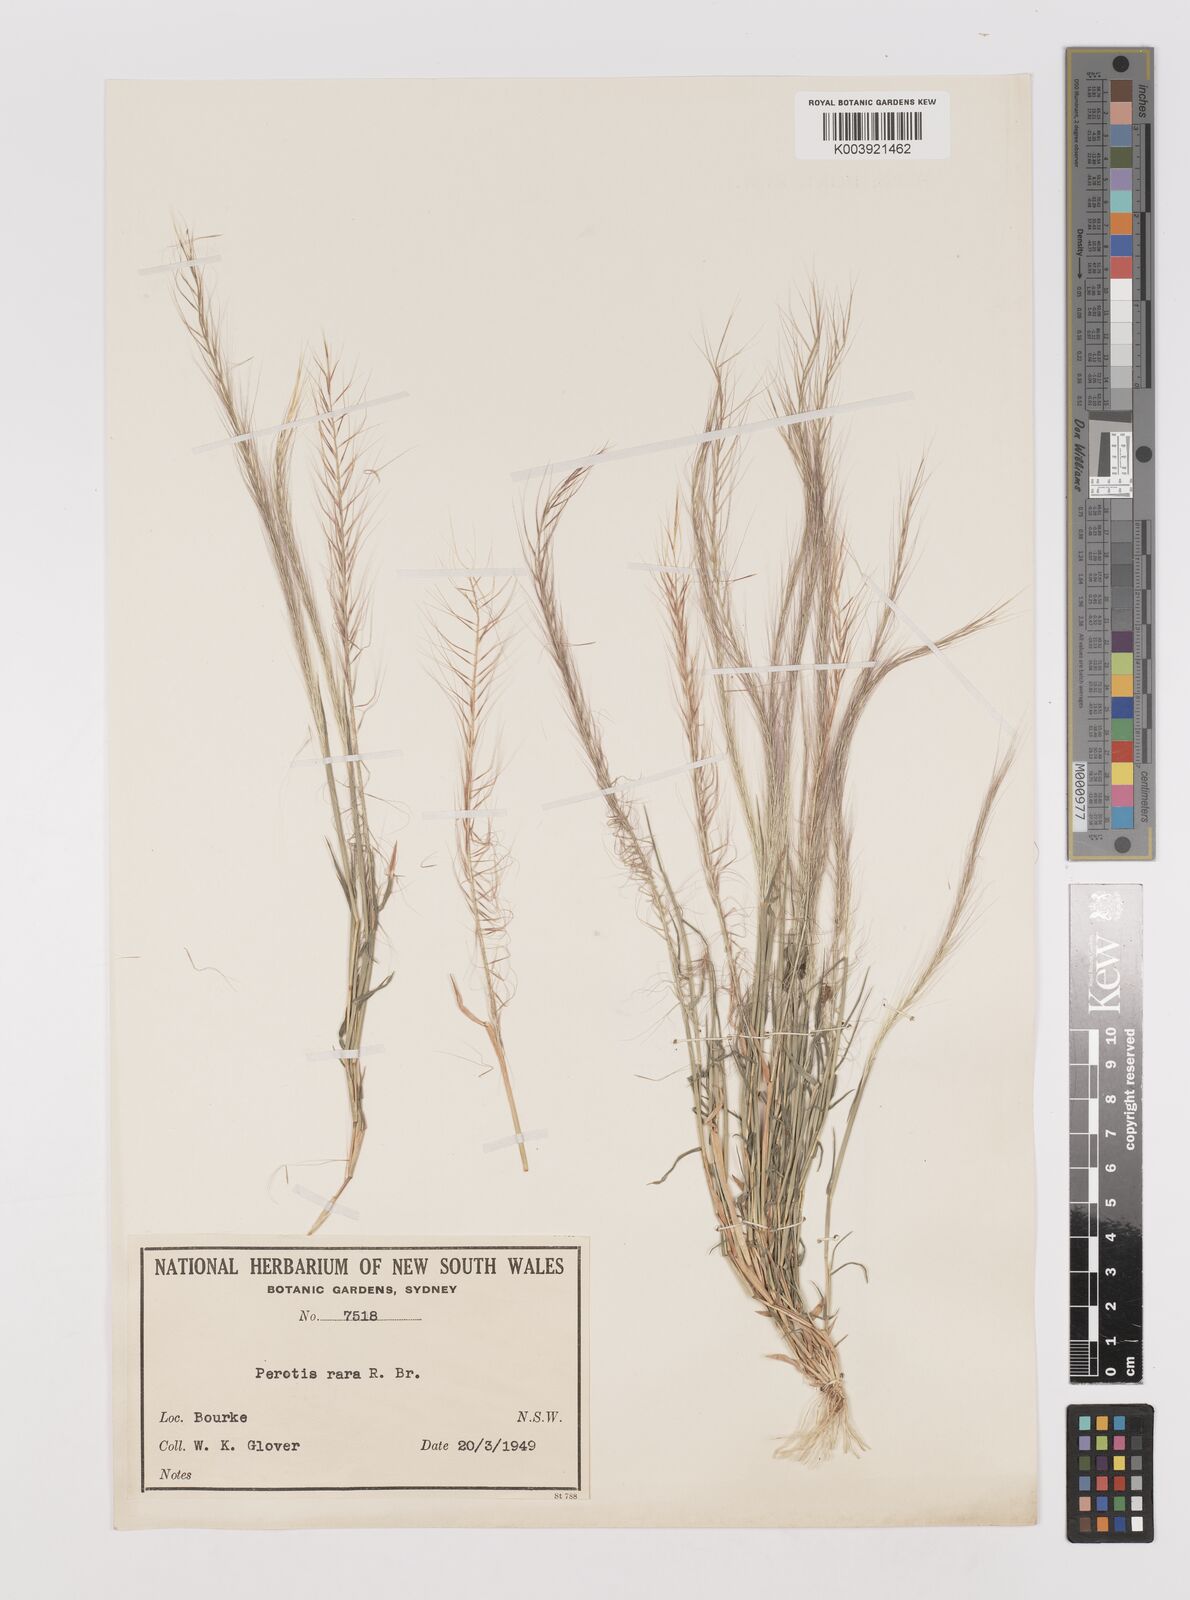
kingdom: Plantae
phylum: Tracheophyta
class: Liliopsida
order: Poales
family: Poaceae
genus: Perotis
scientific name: Perotis rara
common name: Comet grass
